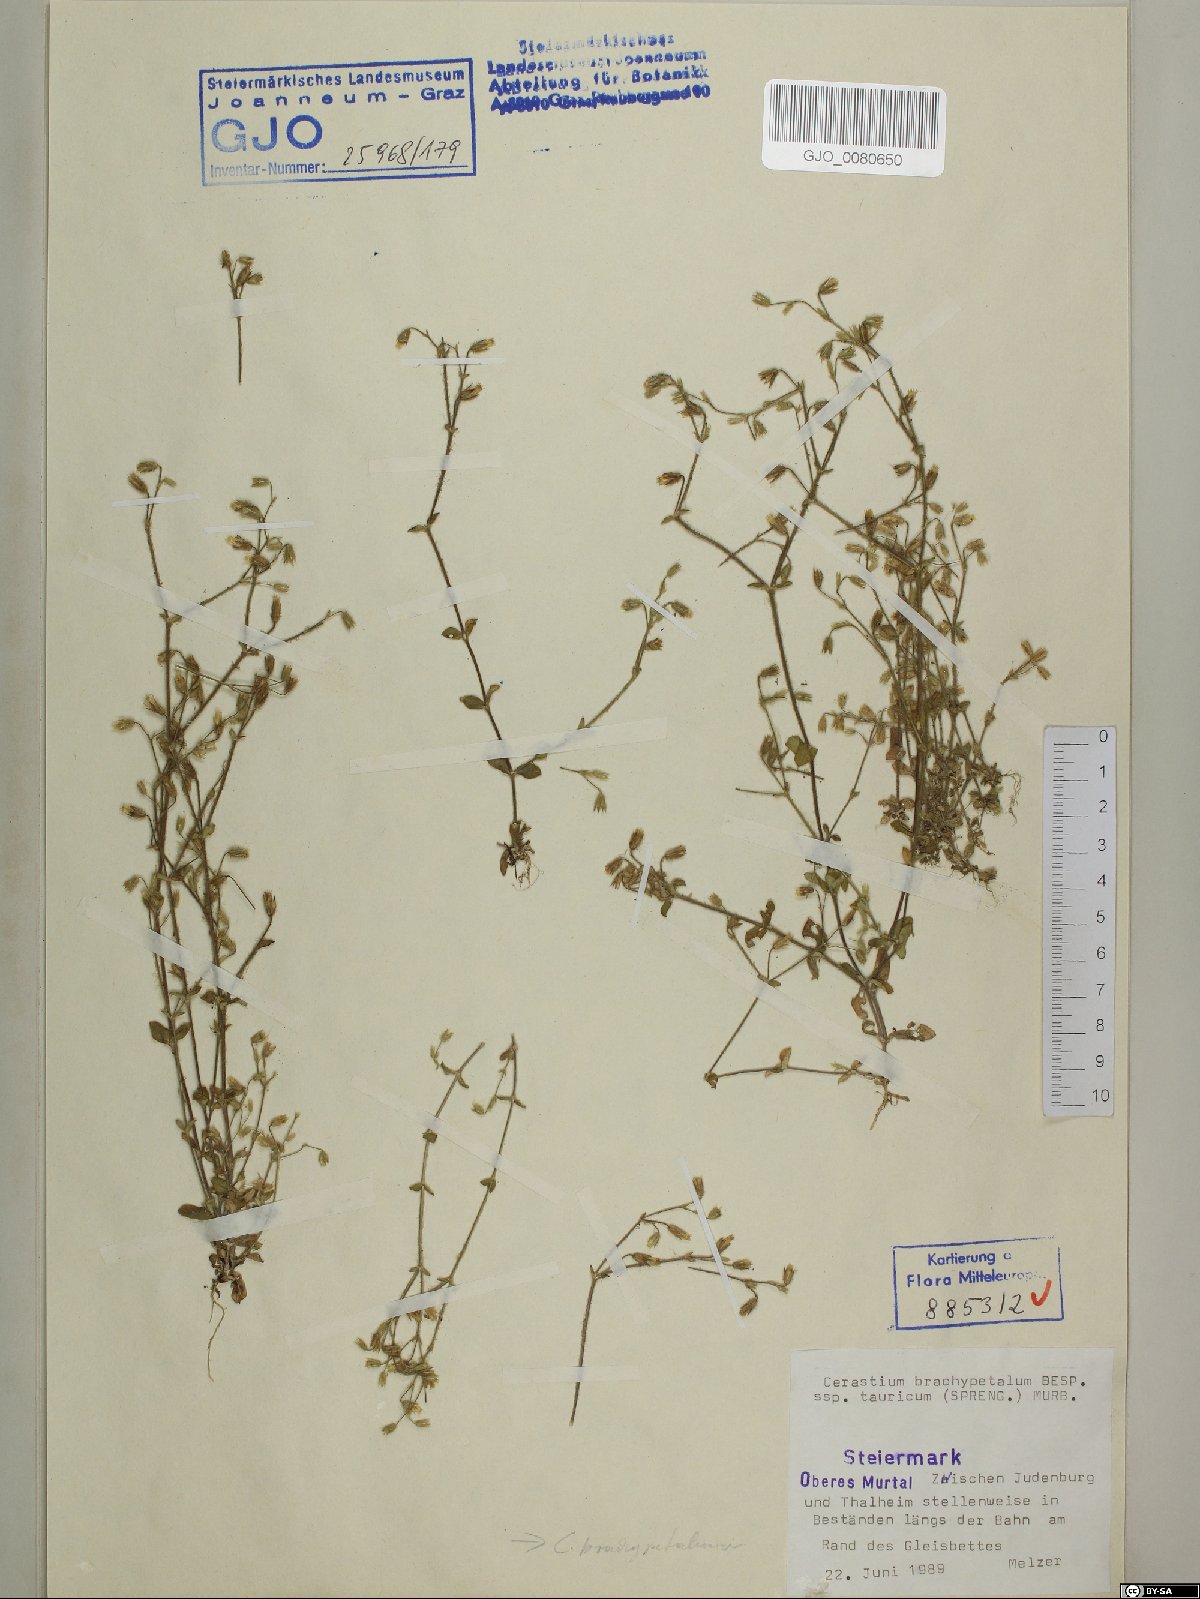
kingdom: Plantae
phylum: Tracheophyta
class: Magnoliopsida
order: Caryophyllales
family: Caryophyllaceae
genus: Cerastium
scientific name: Cerastium brachypetalum
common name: Grey mouse-ear
